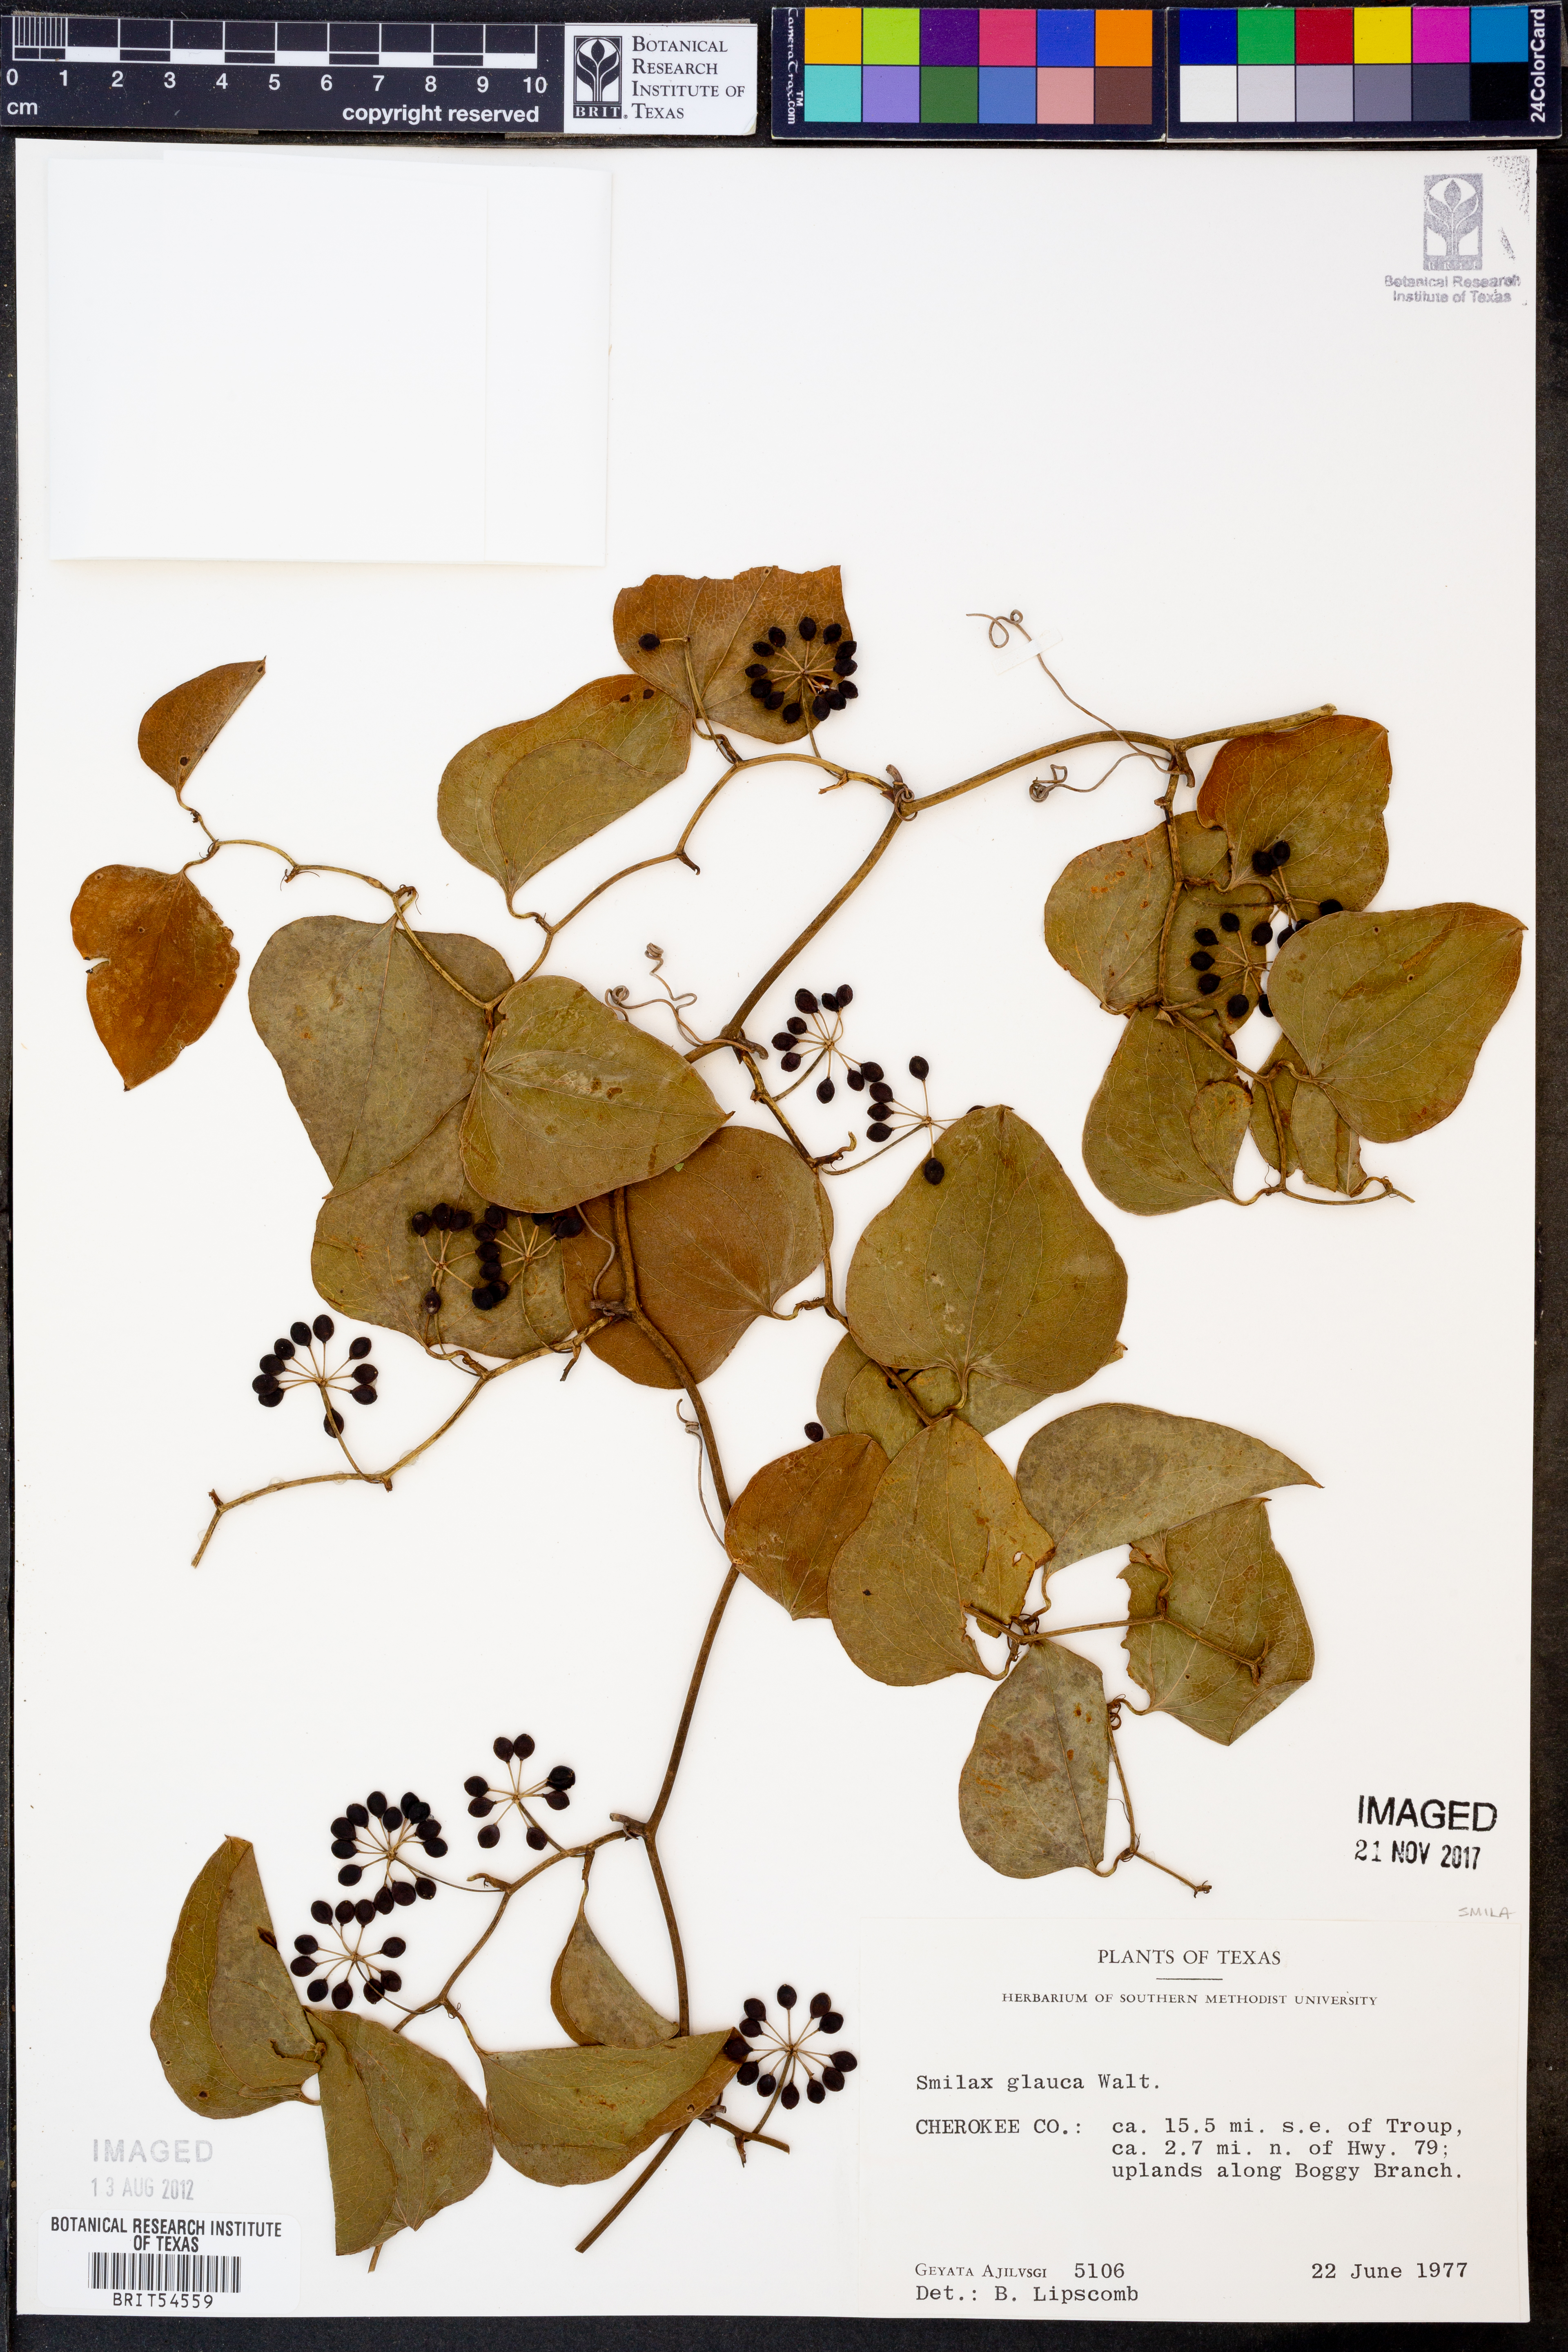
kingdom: Plantae
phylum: Tracheophyta
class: Liliopsida
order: Liliales
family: Smilacaceae
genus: Smilax
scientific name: Smilax glauca
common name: Cat greenbrier
